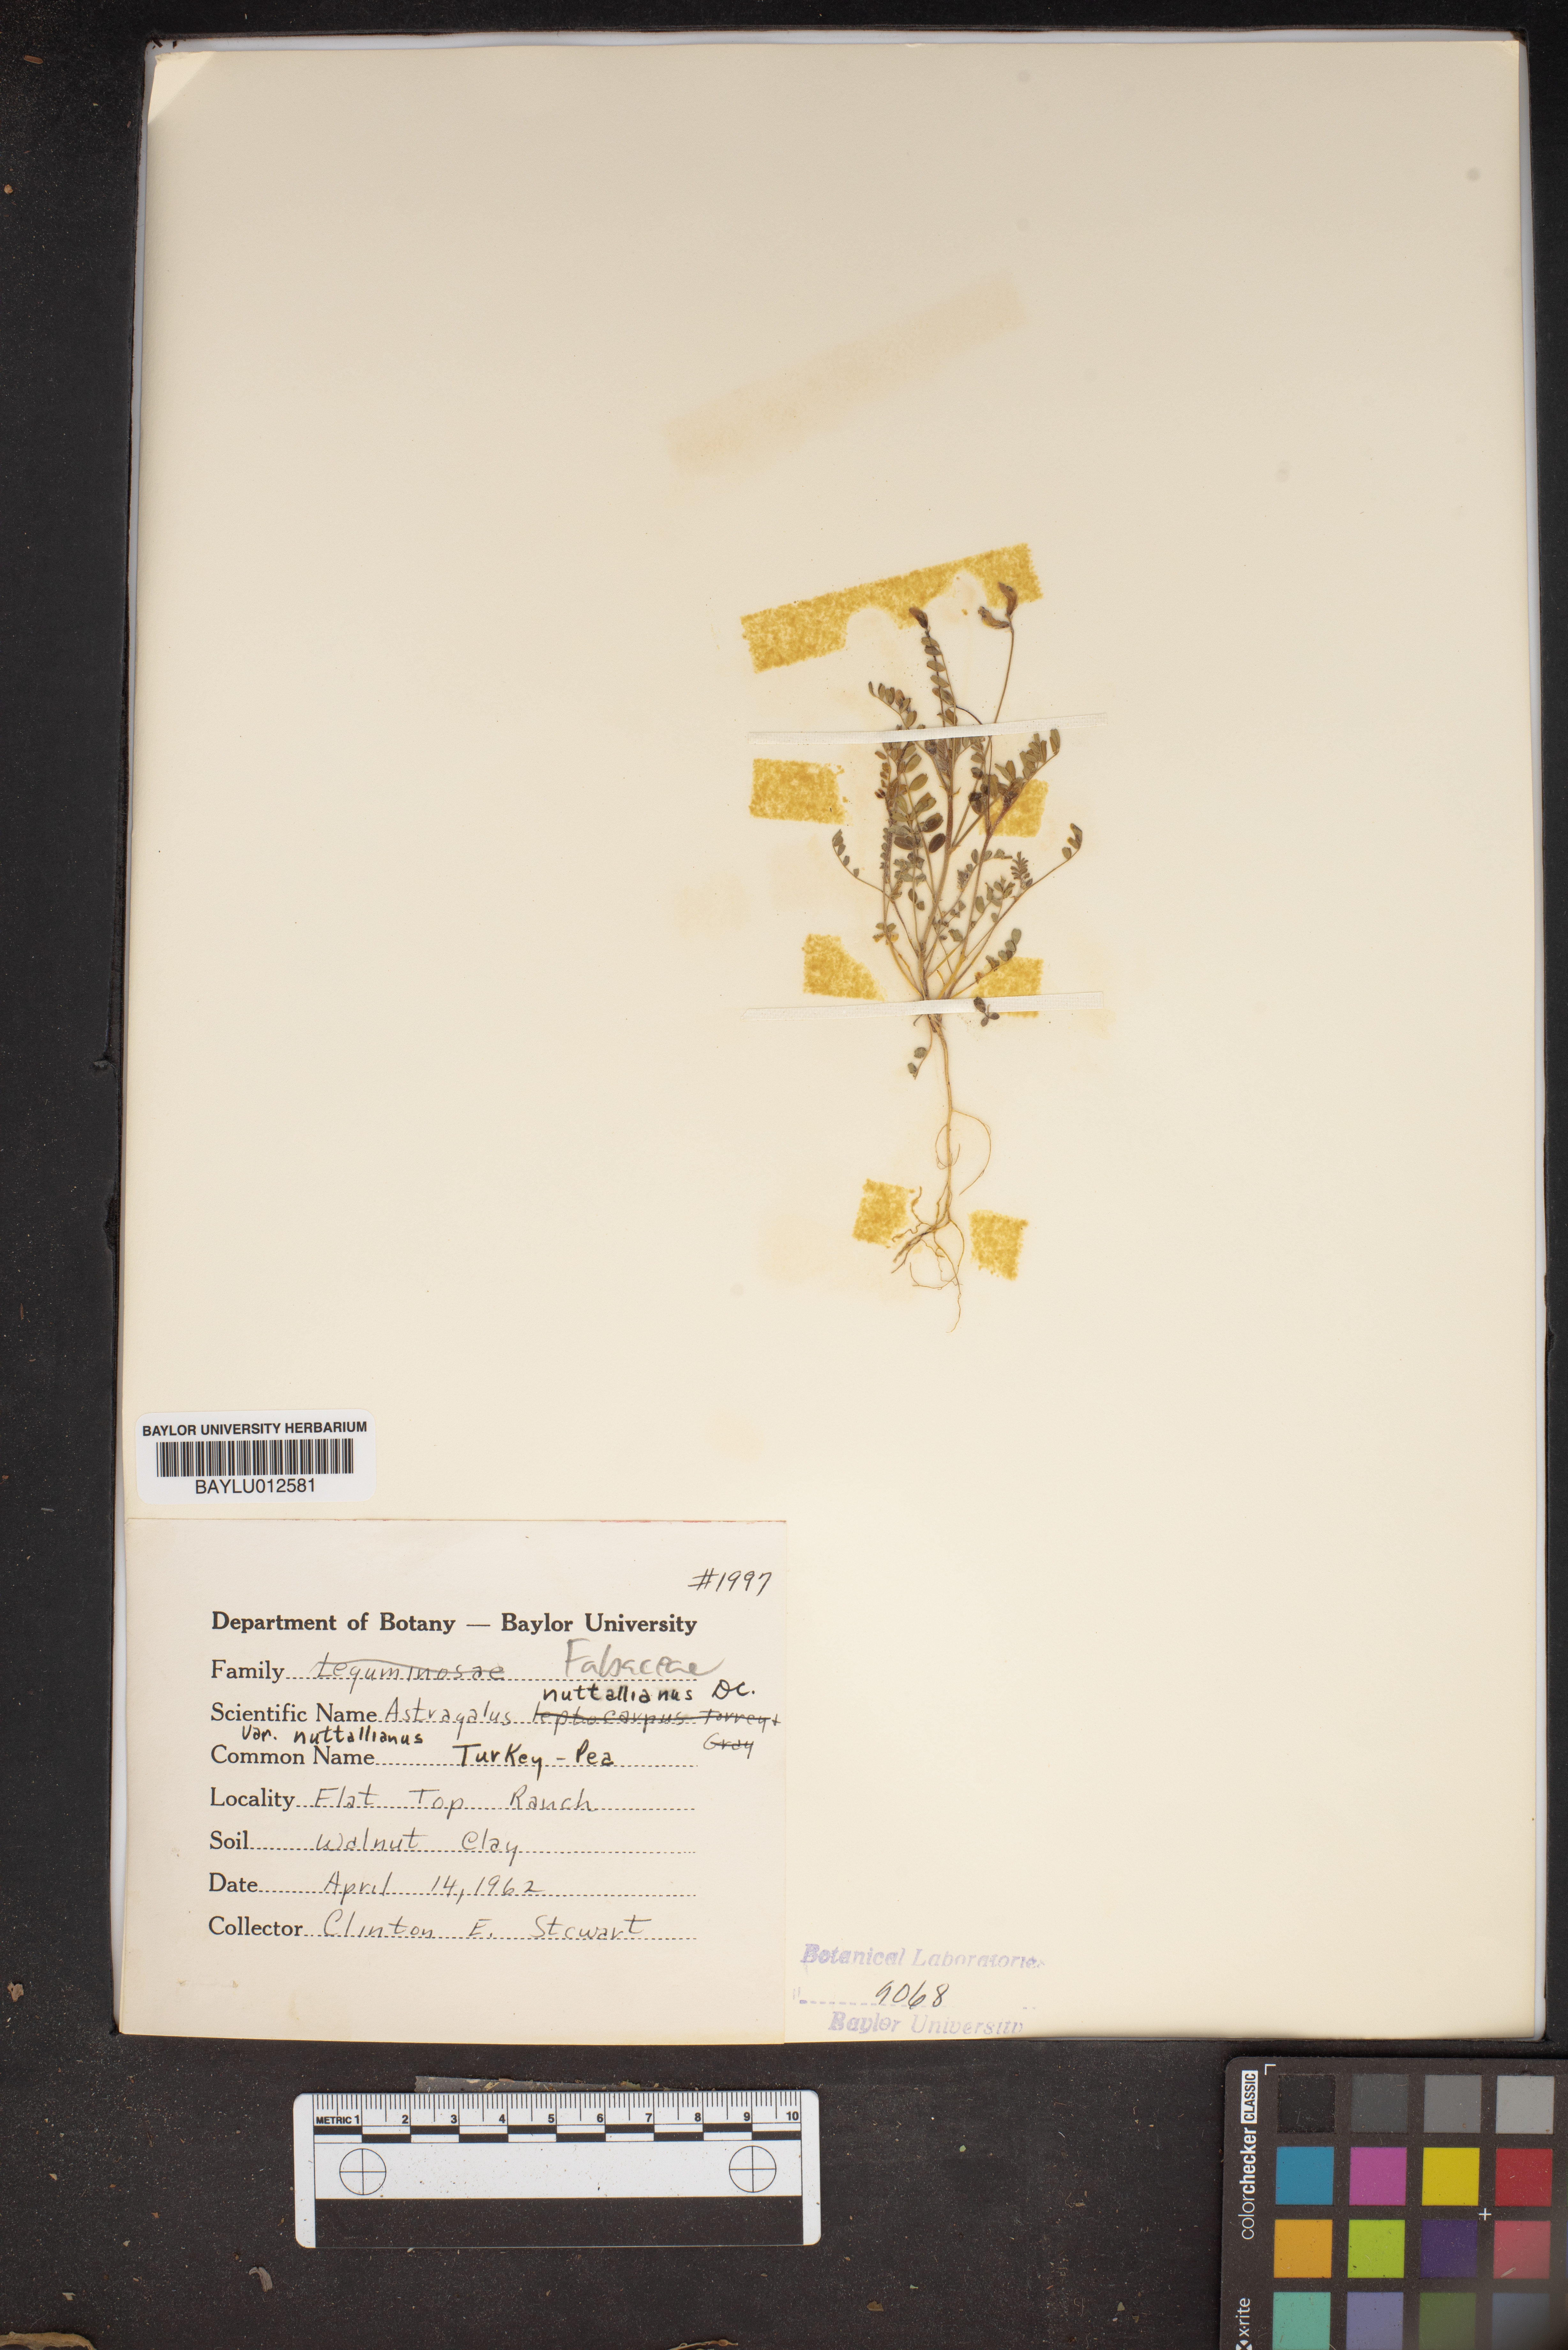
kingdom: Plantae
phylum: Tracheophyta
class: Magnoliopsida
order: Fabales
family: Fabaceae
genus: Astragalus
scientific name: Astragalus nuttallianus
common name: Smallflowered milkvetch
